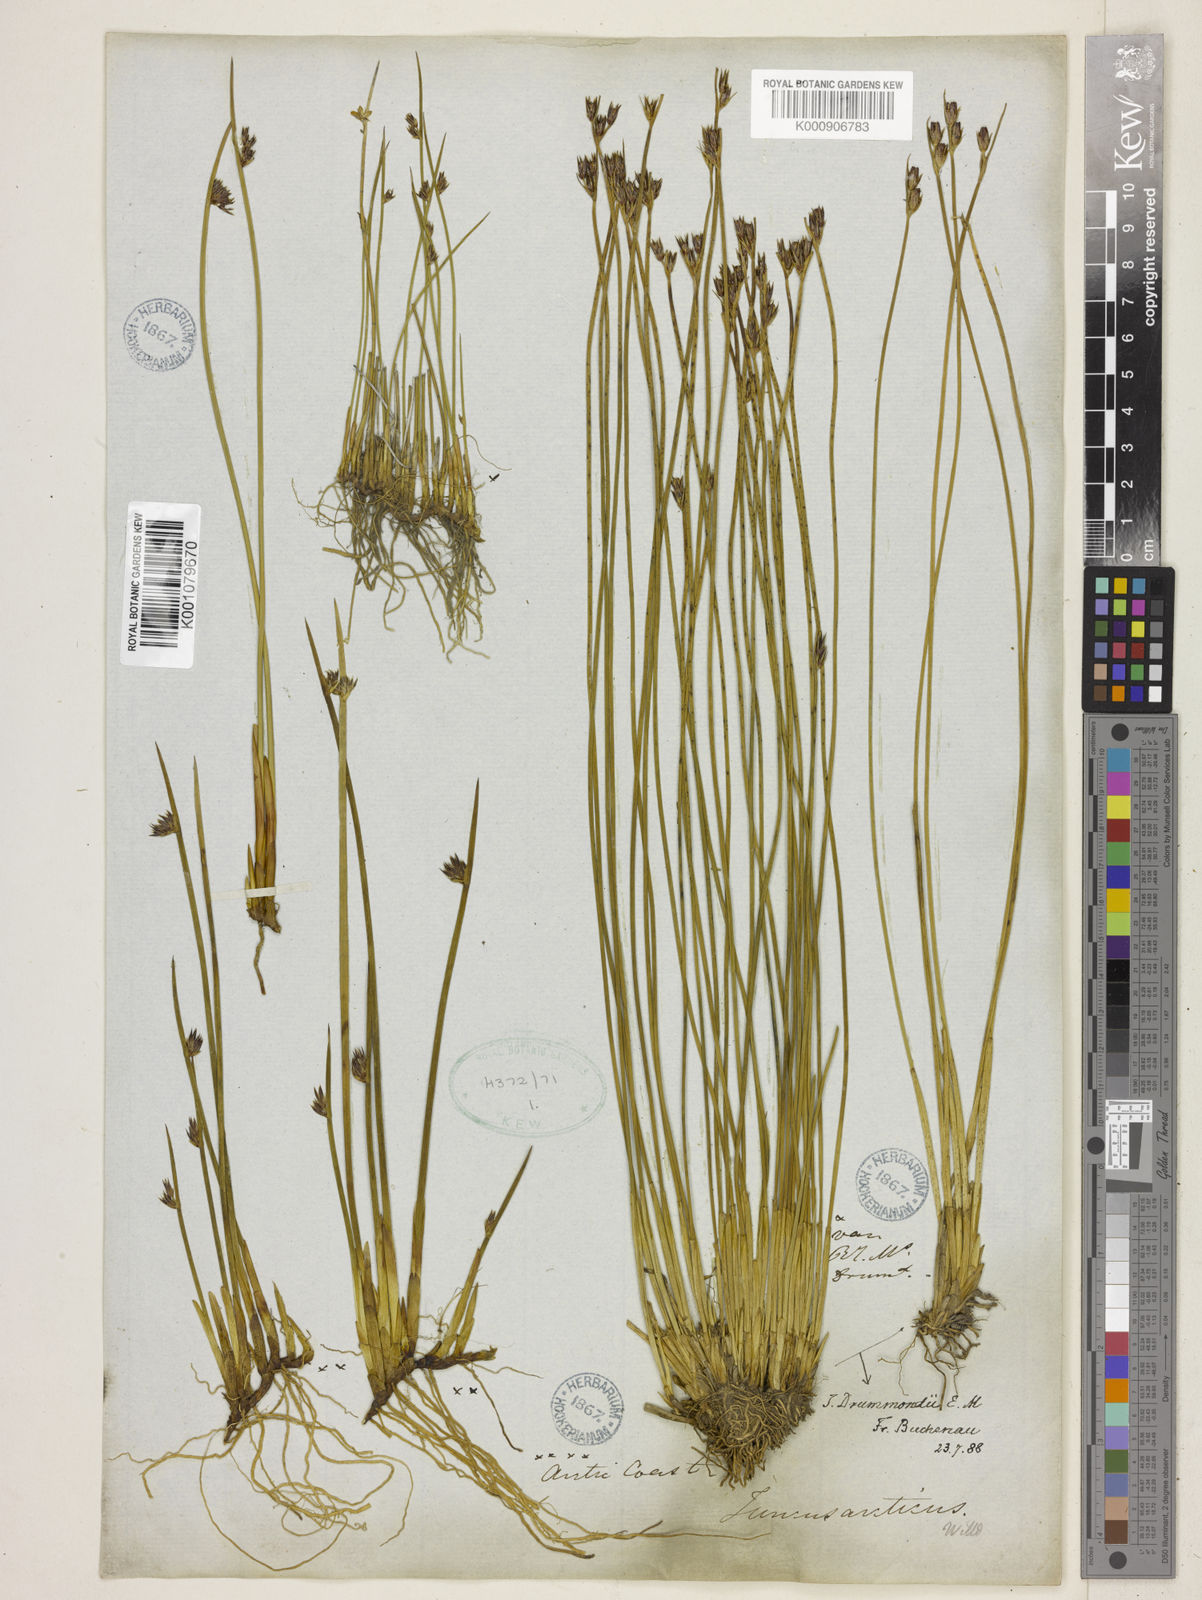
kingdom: Plantae
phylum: Tracheophyta
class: Liliopsida
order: Poales
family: Juncaceae
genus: Juncus
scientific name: Juncus drummondii
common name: Drummond's rush
